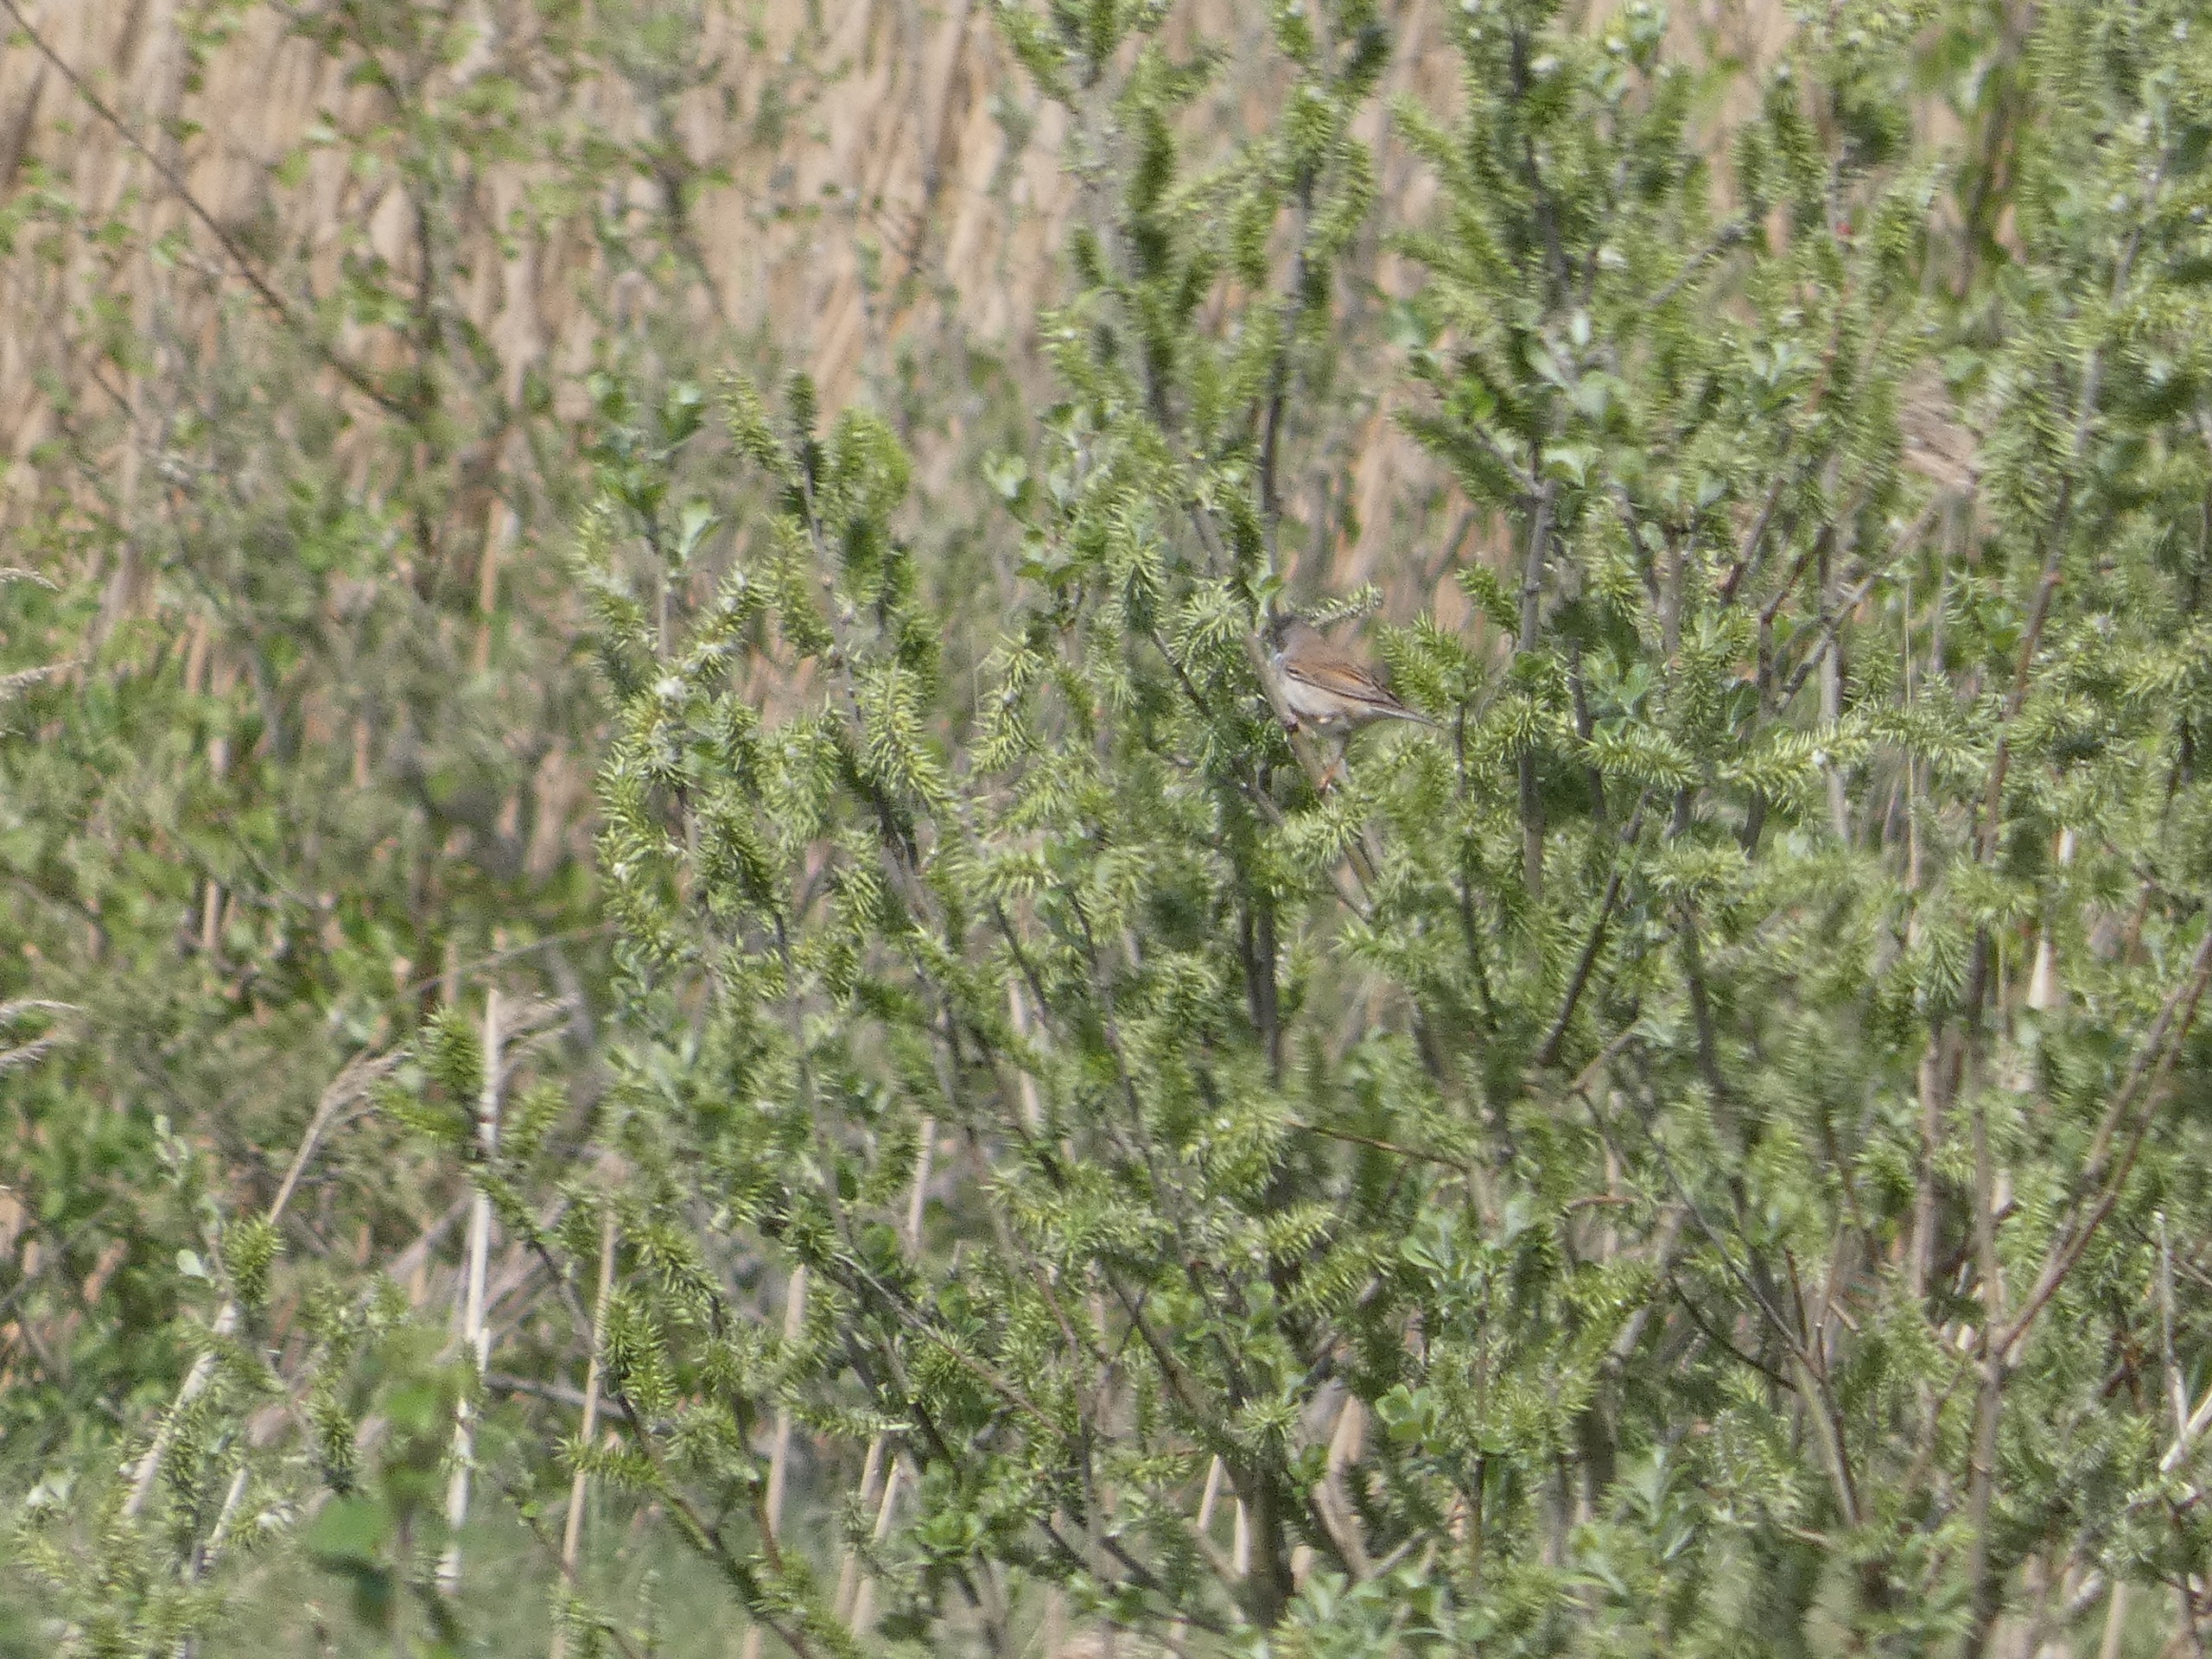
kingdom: Animalia
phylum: Chordata
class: Aves
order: Passeriformes
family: Sylviidae
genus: Sylvia
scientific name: Sylvia communis
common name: Tornsanger
